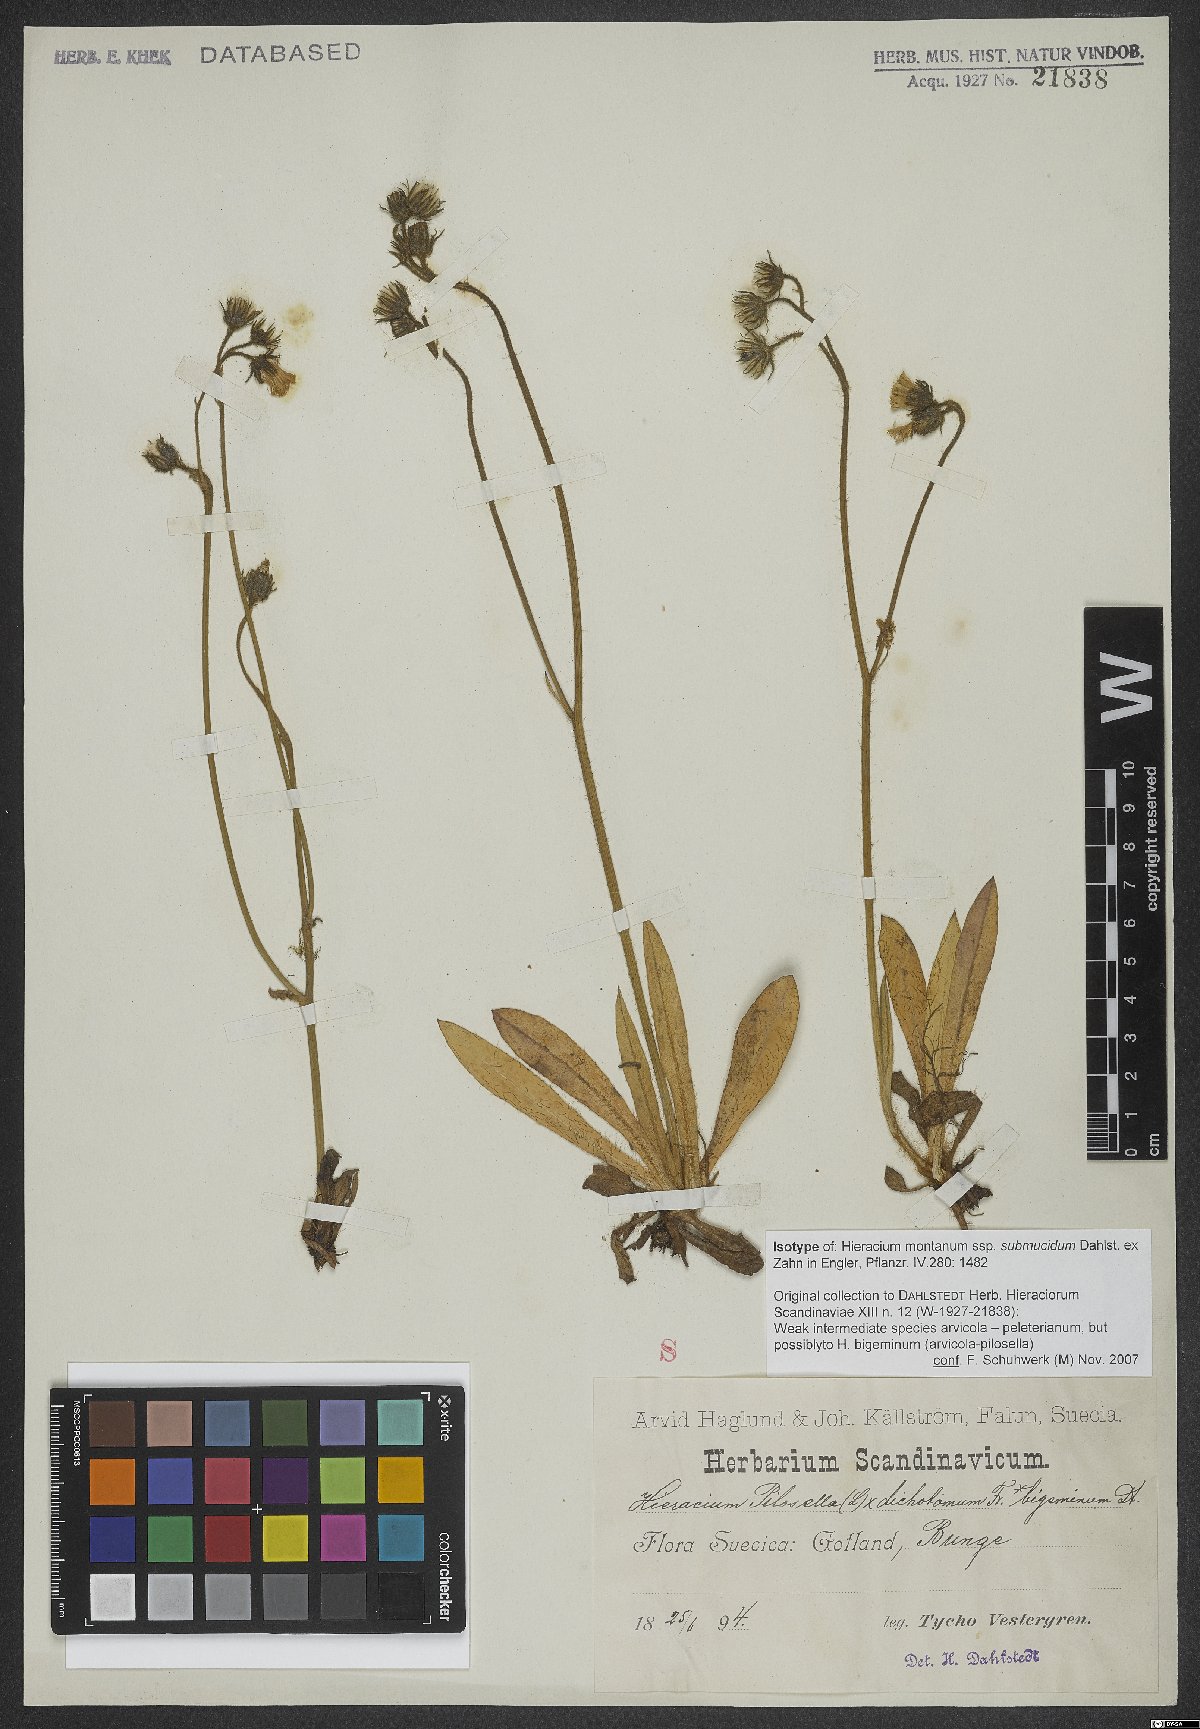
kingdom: Plantae
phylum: Tracheophyta
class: Magnoliopsida
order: Asterales
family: Asteraceae
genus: Hieracium
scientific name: Hieracium bigeminum
